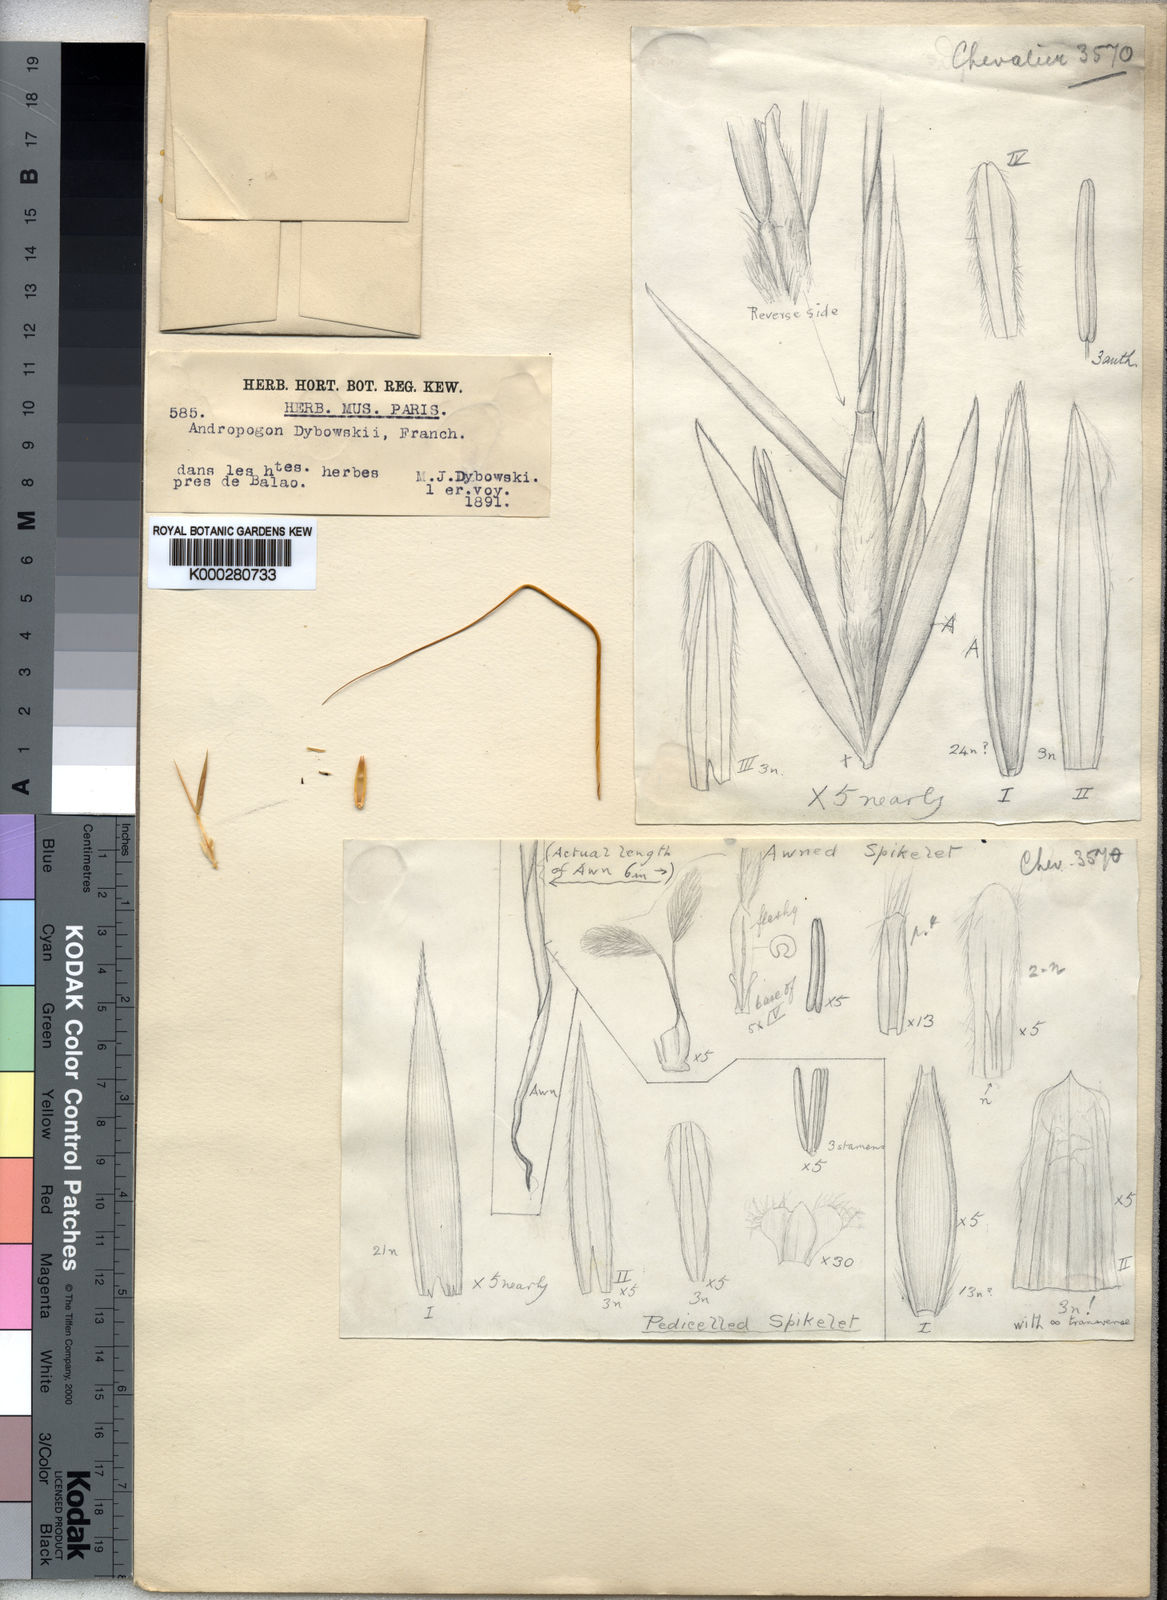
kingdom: Plantae
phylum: Tracheophyta
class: Liliopsida
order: Poales
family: Poaceae
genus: Hyparrhenia
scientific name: Hyparrhenia dybowskii
